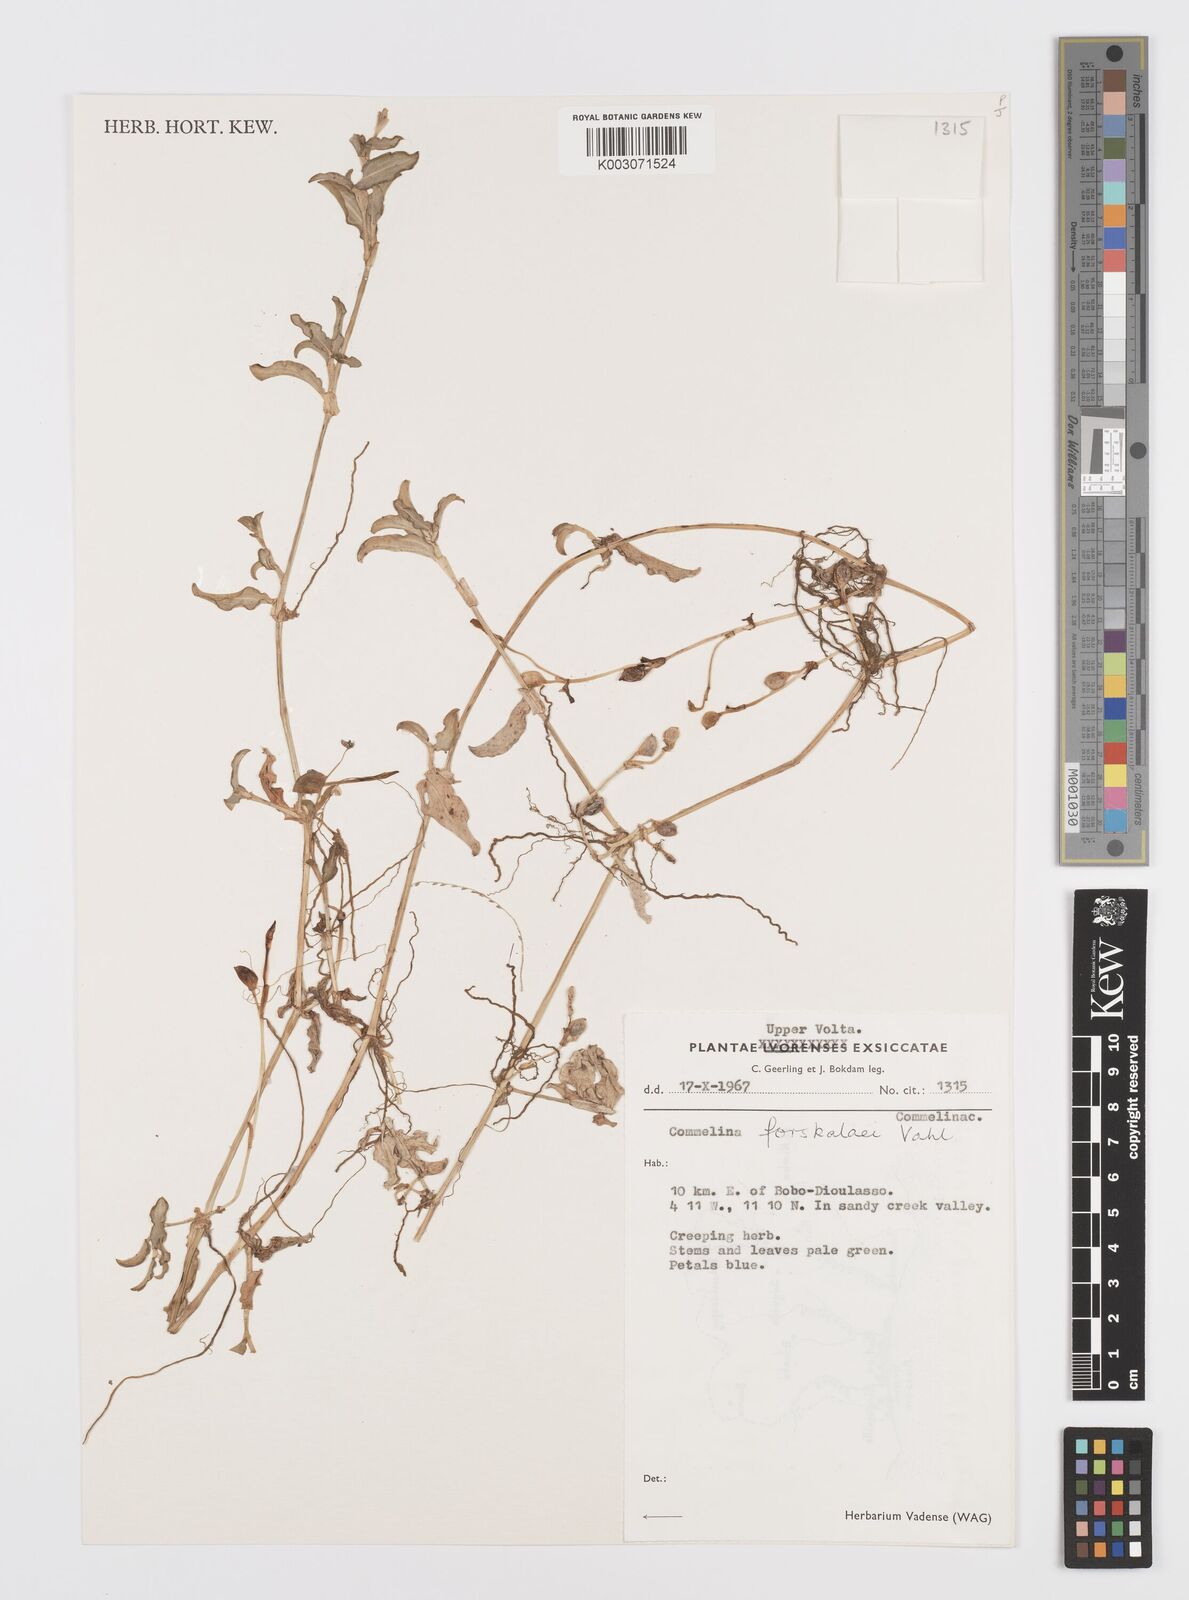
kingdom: Plantae
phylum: Tracheophyta
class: Liliopsida
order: Commelinales
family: Commelinaceae
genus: Commelina
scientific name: Commelina forskaolii
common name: Rat's ear
